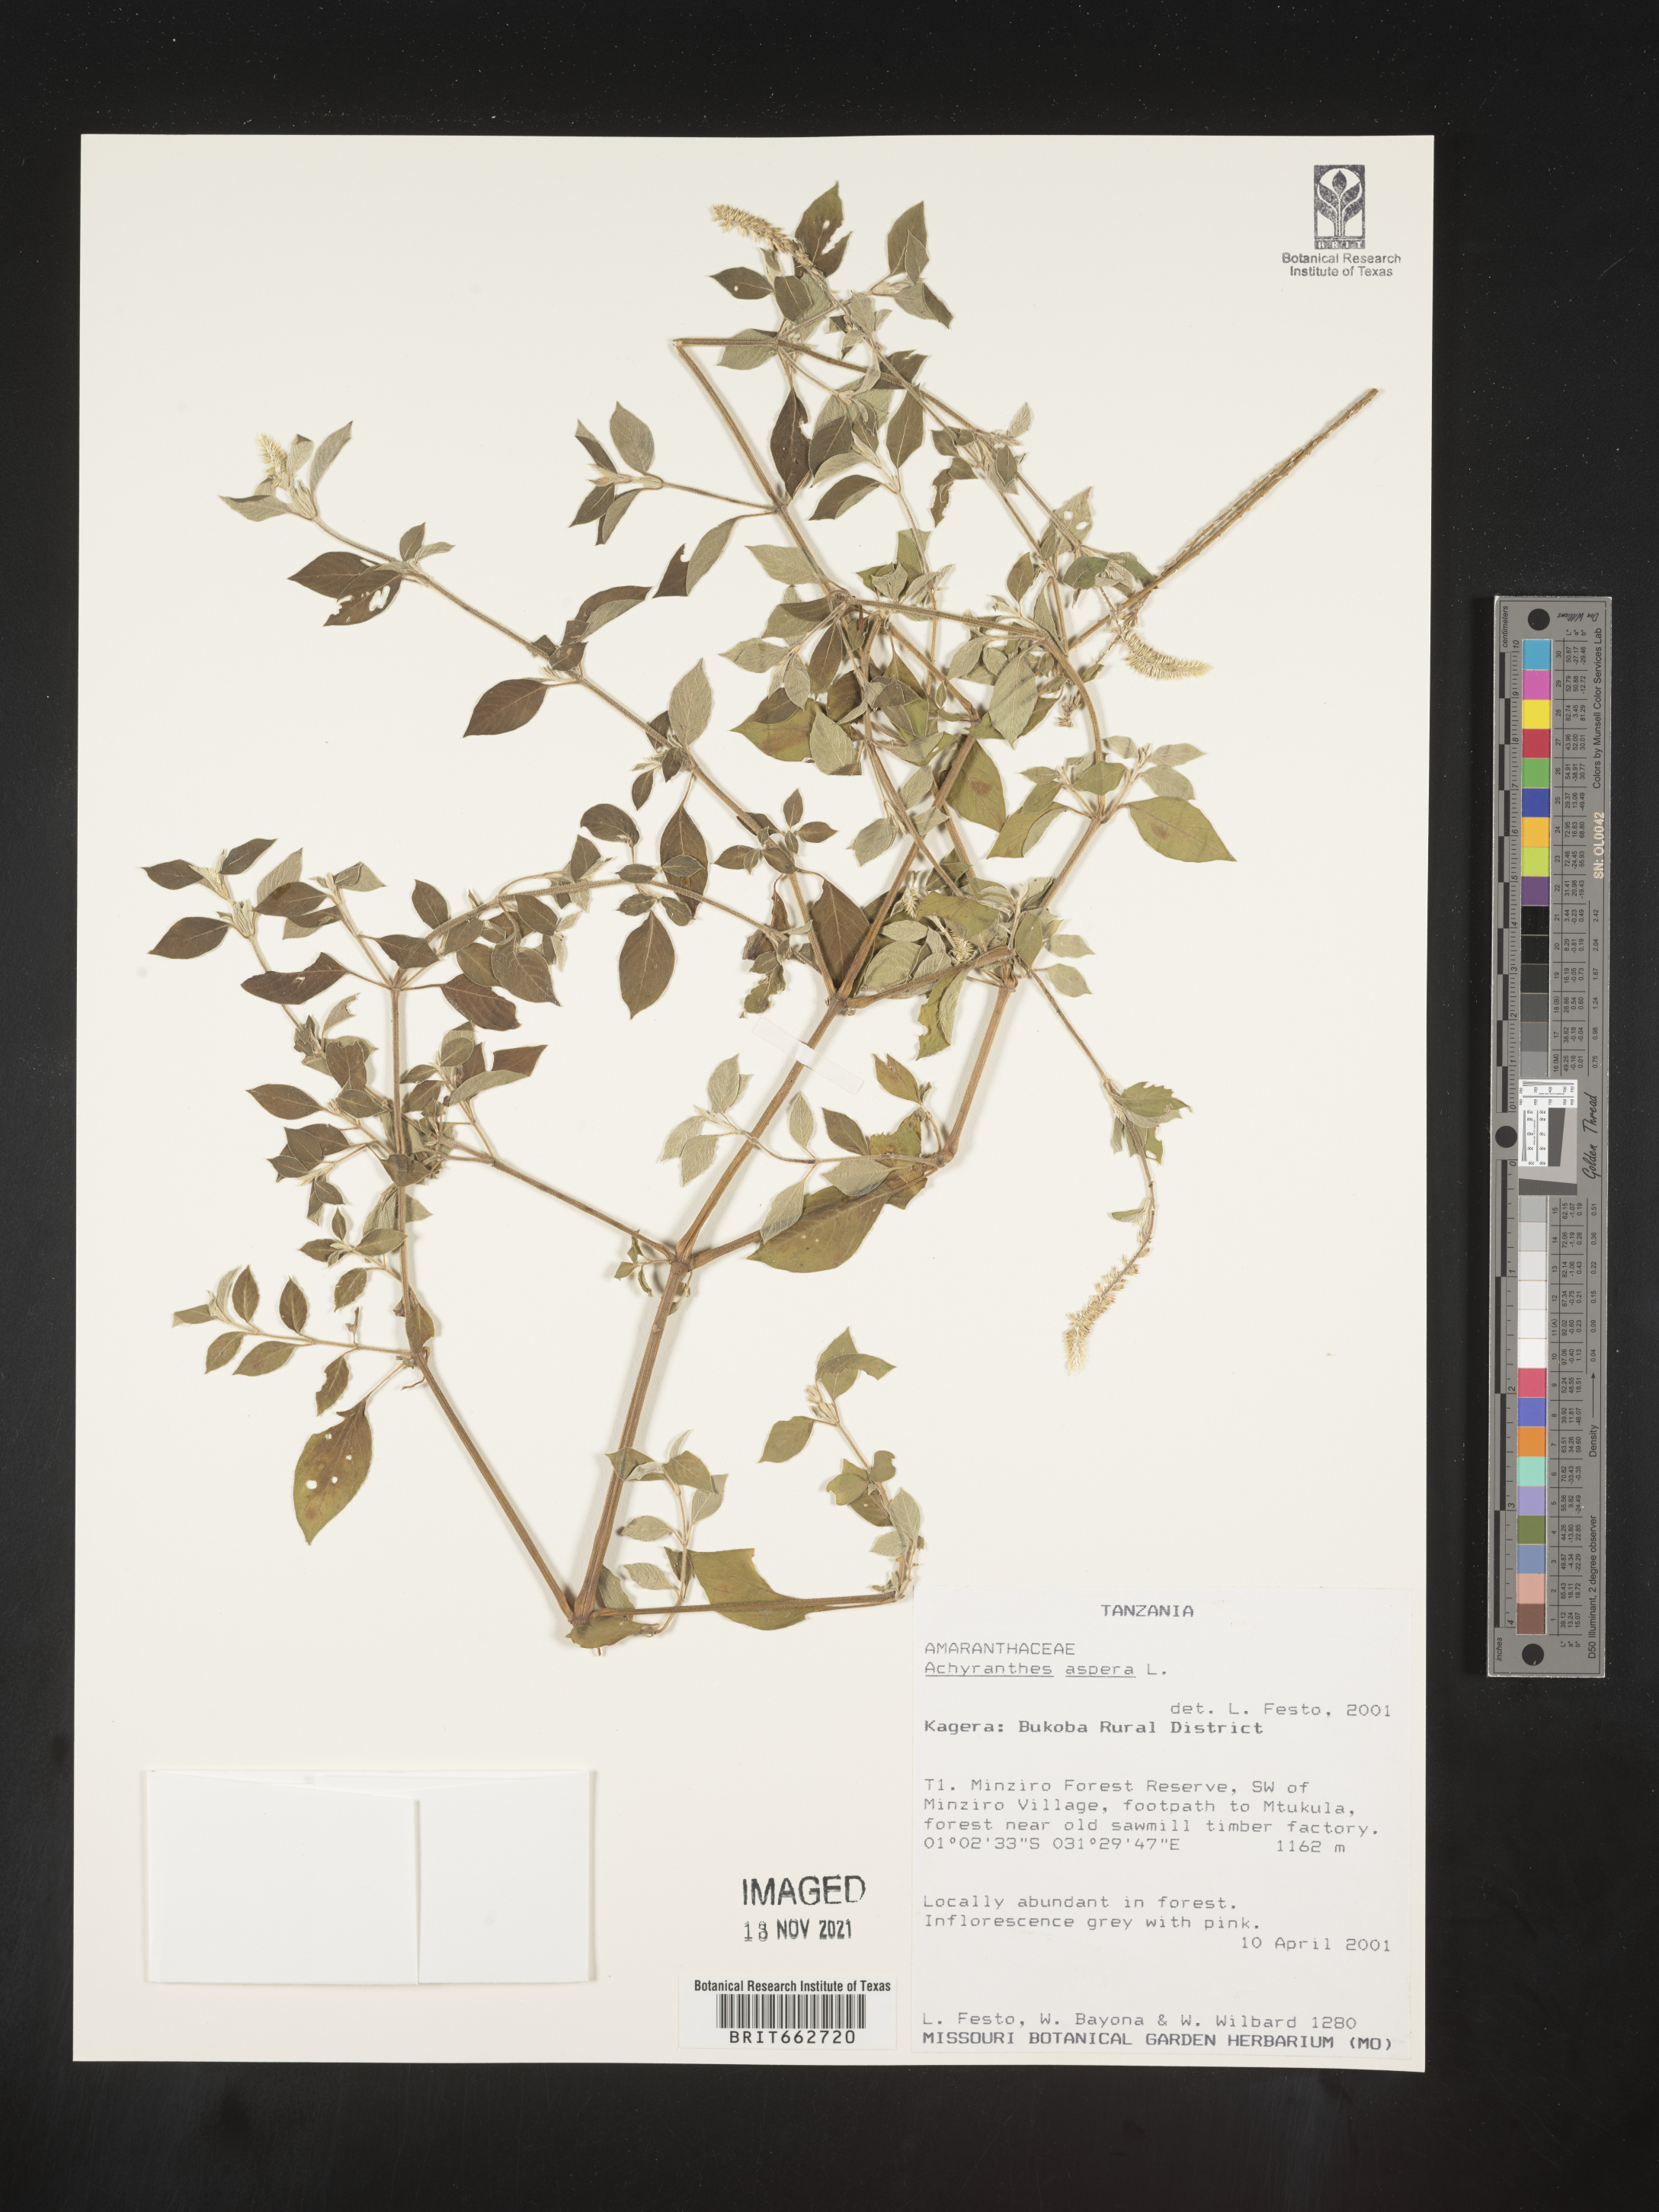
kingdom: Plantae
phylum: Tracheophyta
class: Magnoliopsida
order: Caryophyllales
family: Amaranthaceae
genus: Achyranthes
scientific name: Achyranthes
